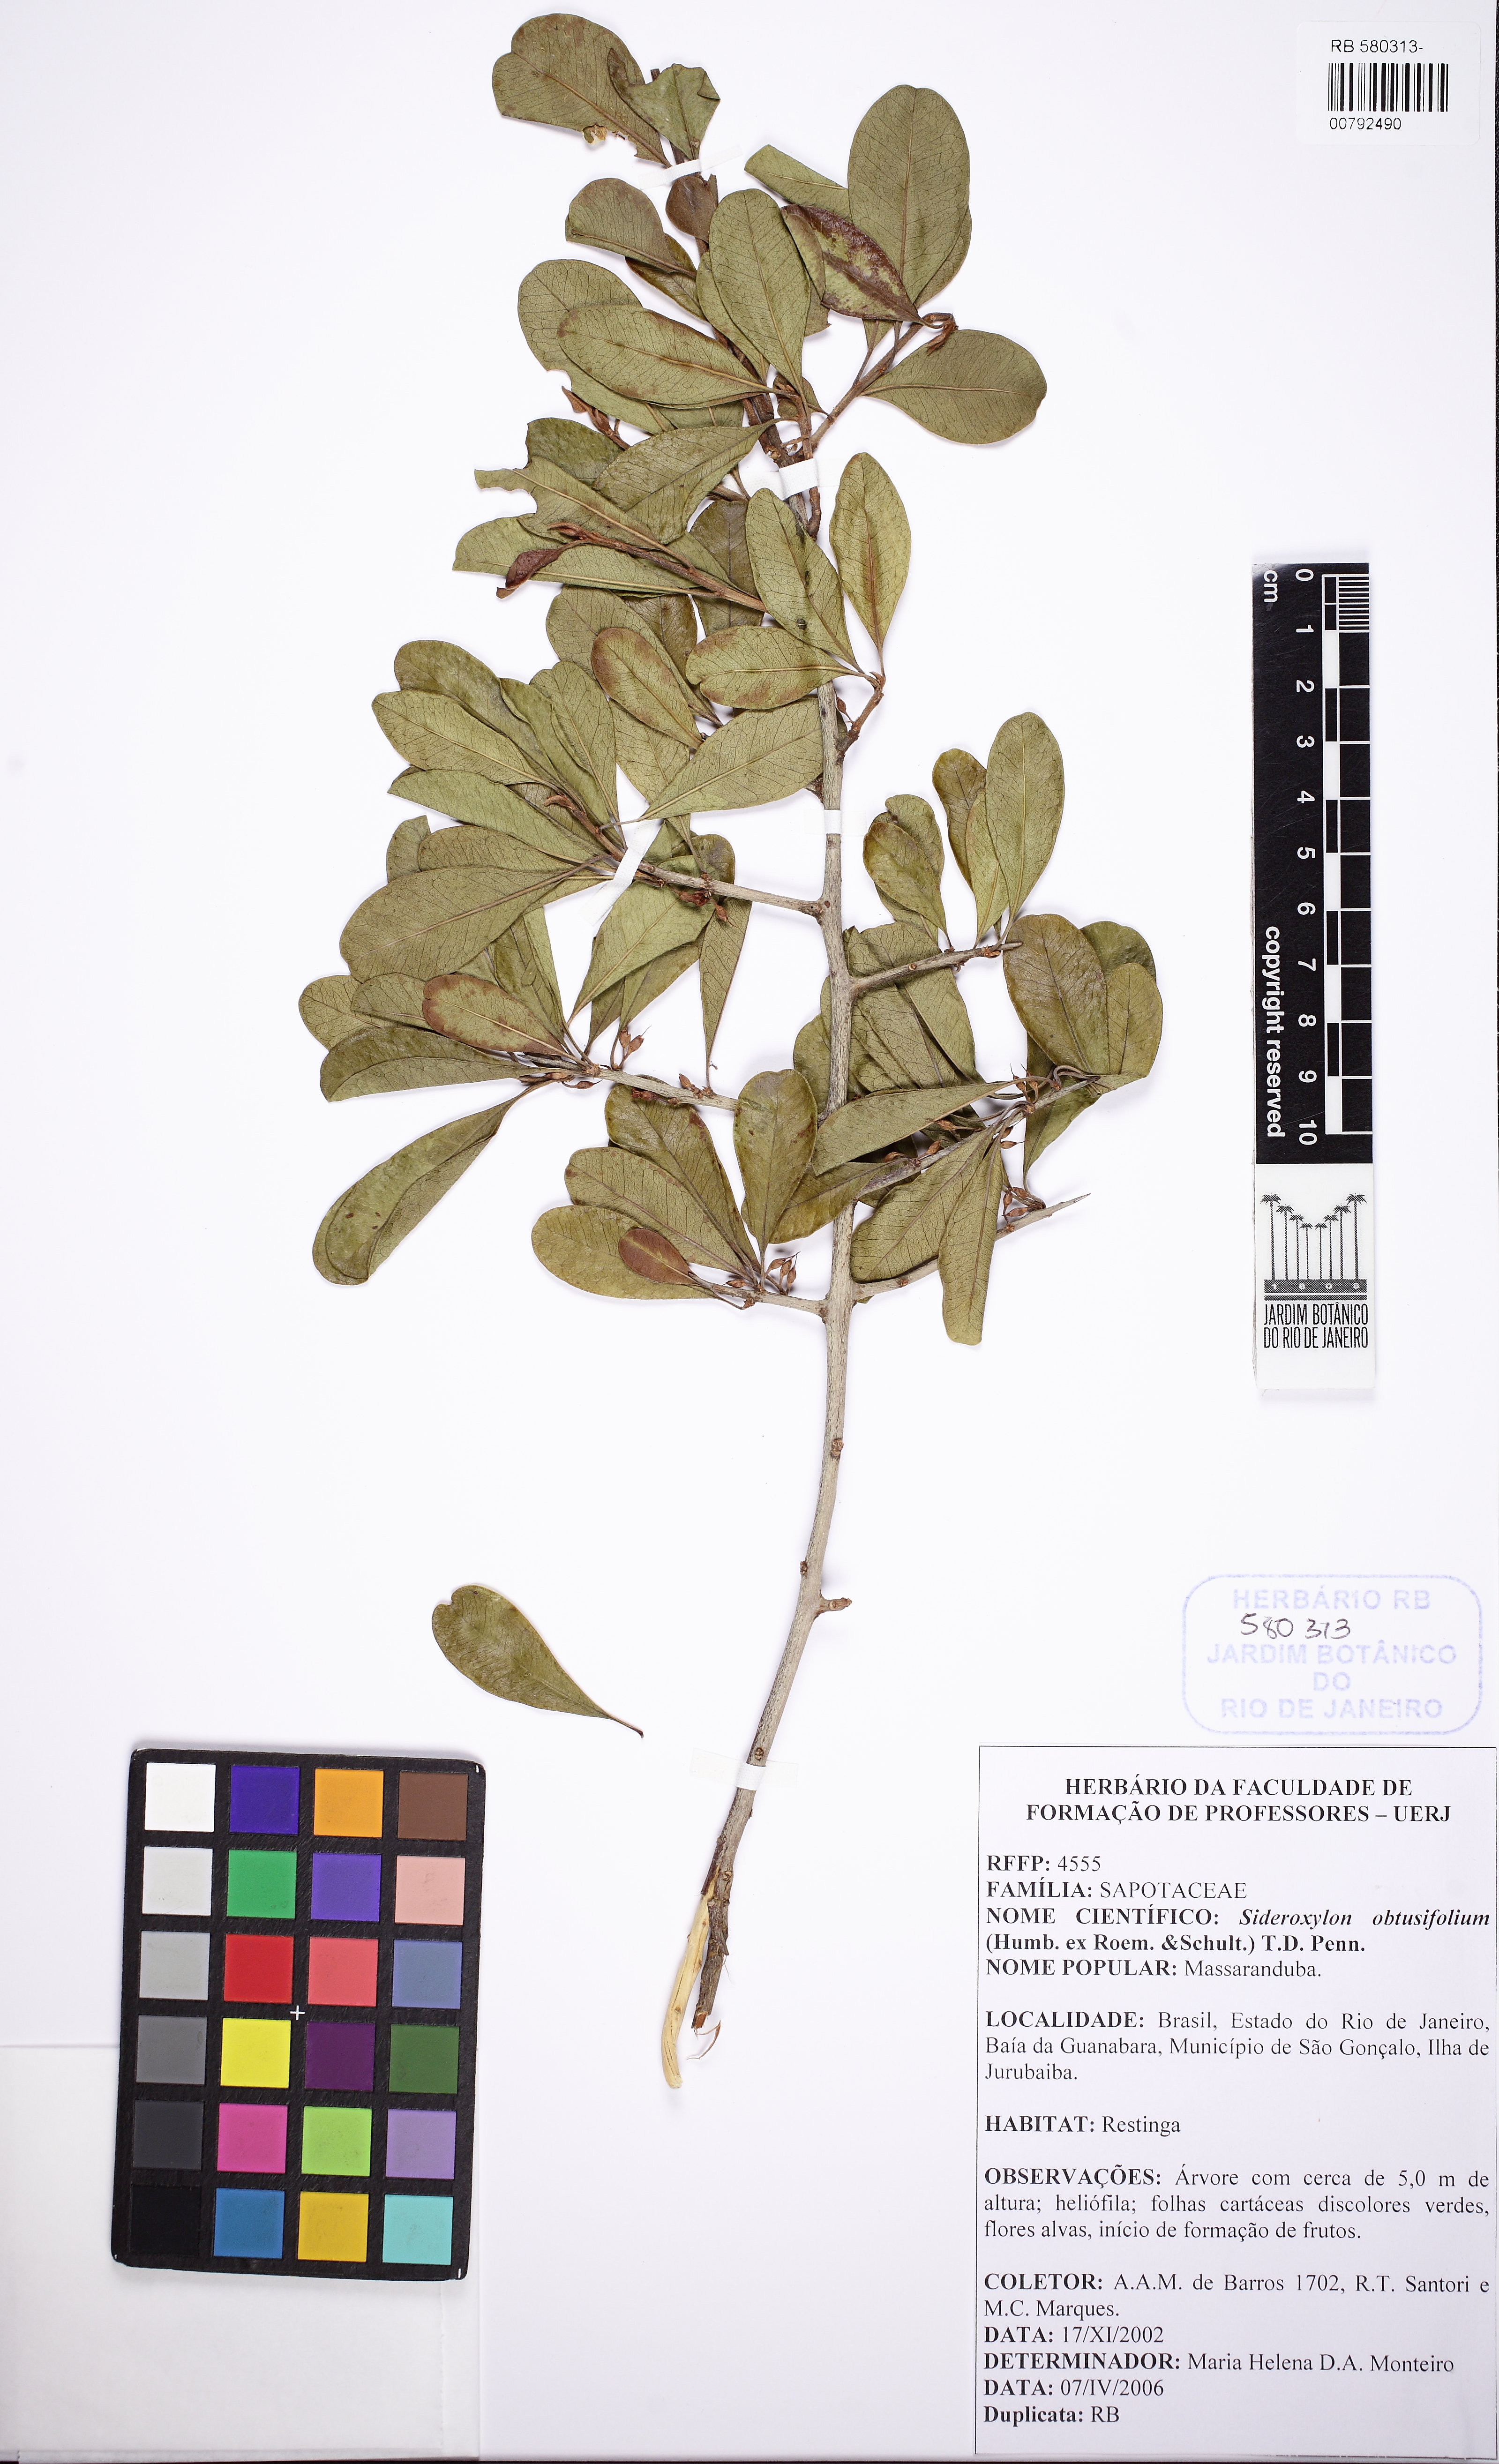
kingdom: Plantae
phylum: Tracheophyta
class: Magnoliopsida
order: Ericales
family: Sapotaceae
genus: Sideroxylon
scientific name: Sideroxylon obtusifolium
